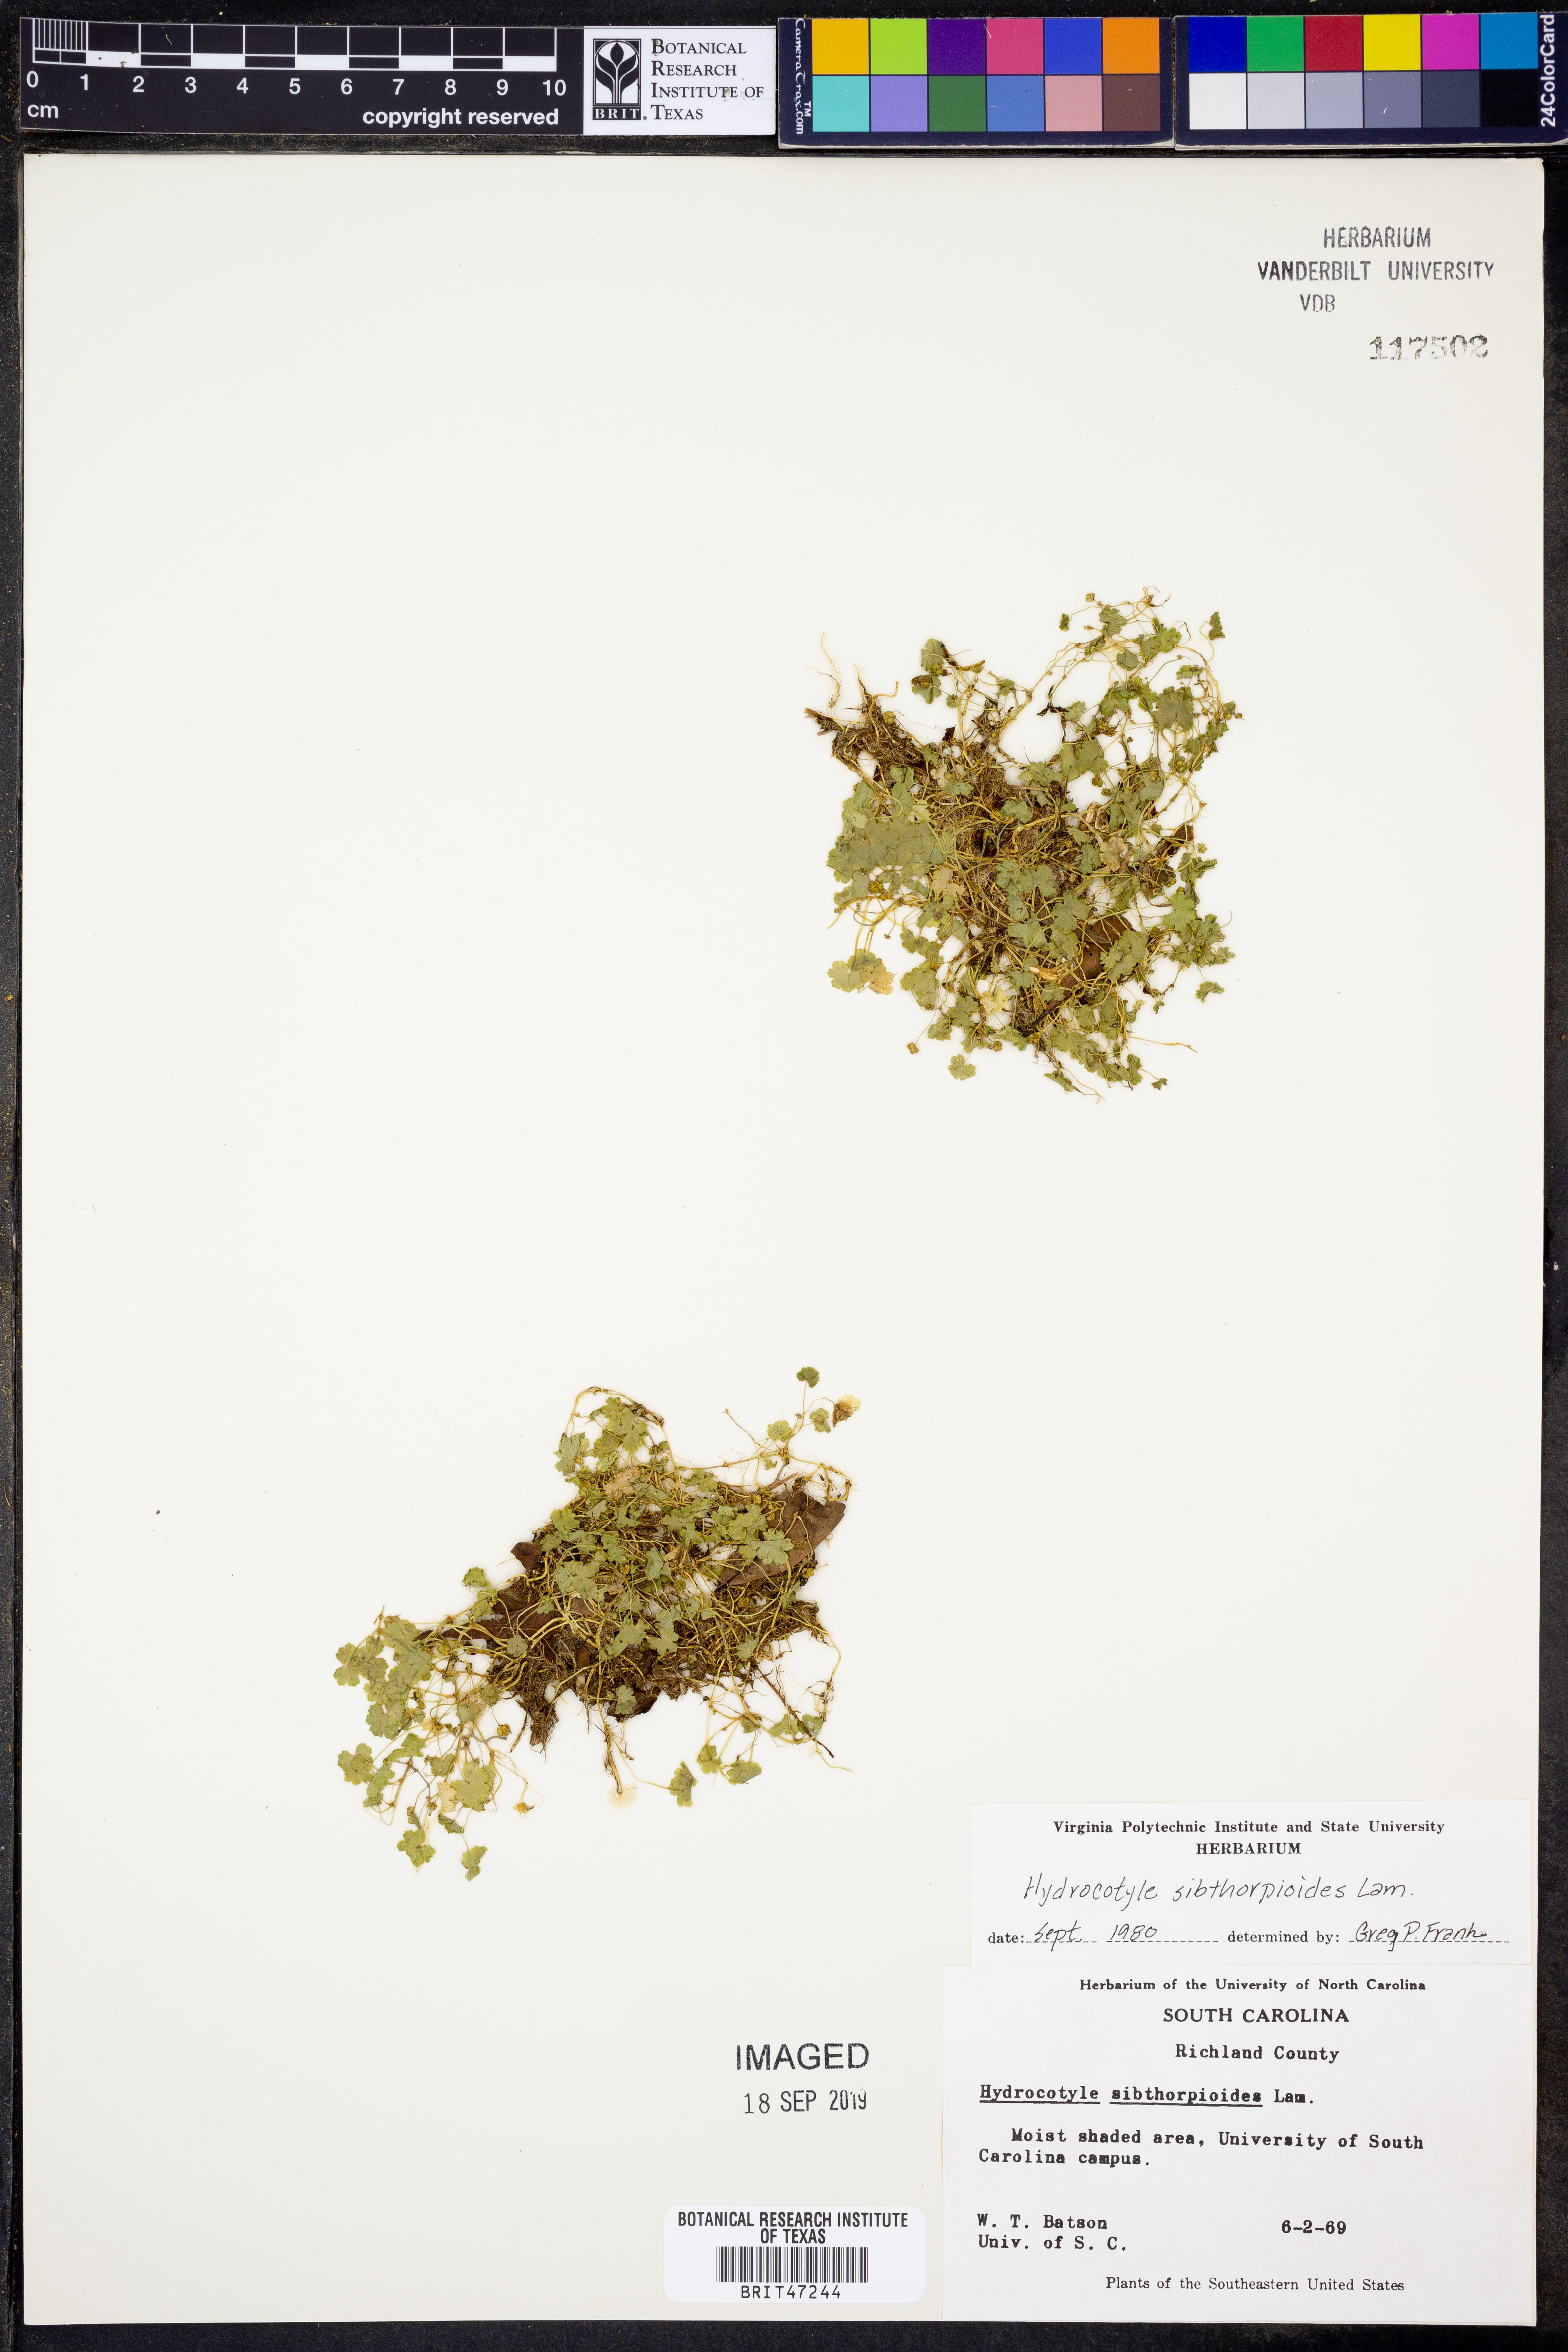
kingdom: Plantae
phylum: Tracheophyta
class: Magnoliopsida
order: Apiales
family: Araliaceae
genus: Hydrocotyle
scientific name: Hydrocotyle sibthorpioides
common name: Lawn marshpennywort
